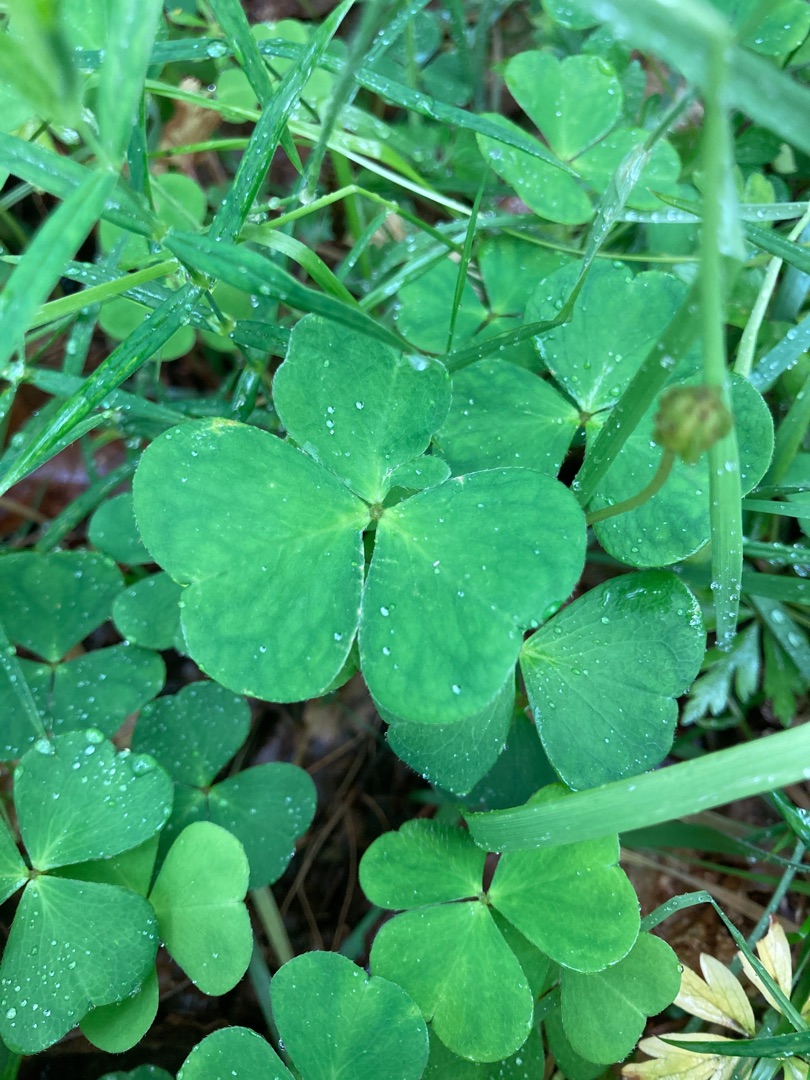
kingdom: Plantae
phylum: Tracheophyta
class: Magnoliopsida
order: Oxalidales
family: Oxalidaceae
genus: Oxalis
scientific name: Oxalis acetosella
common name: Skovsyre
